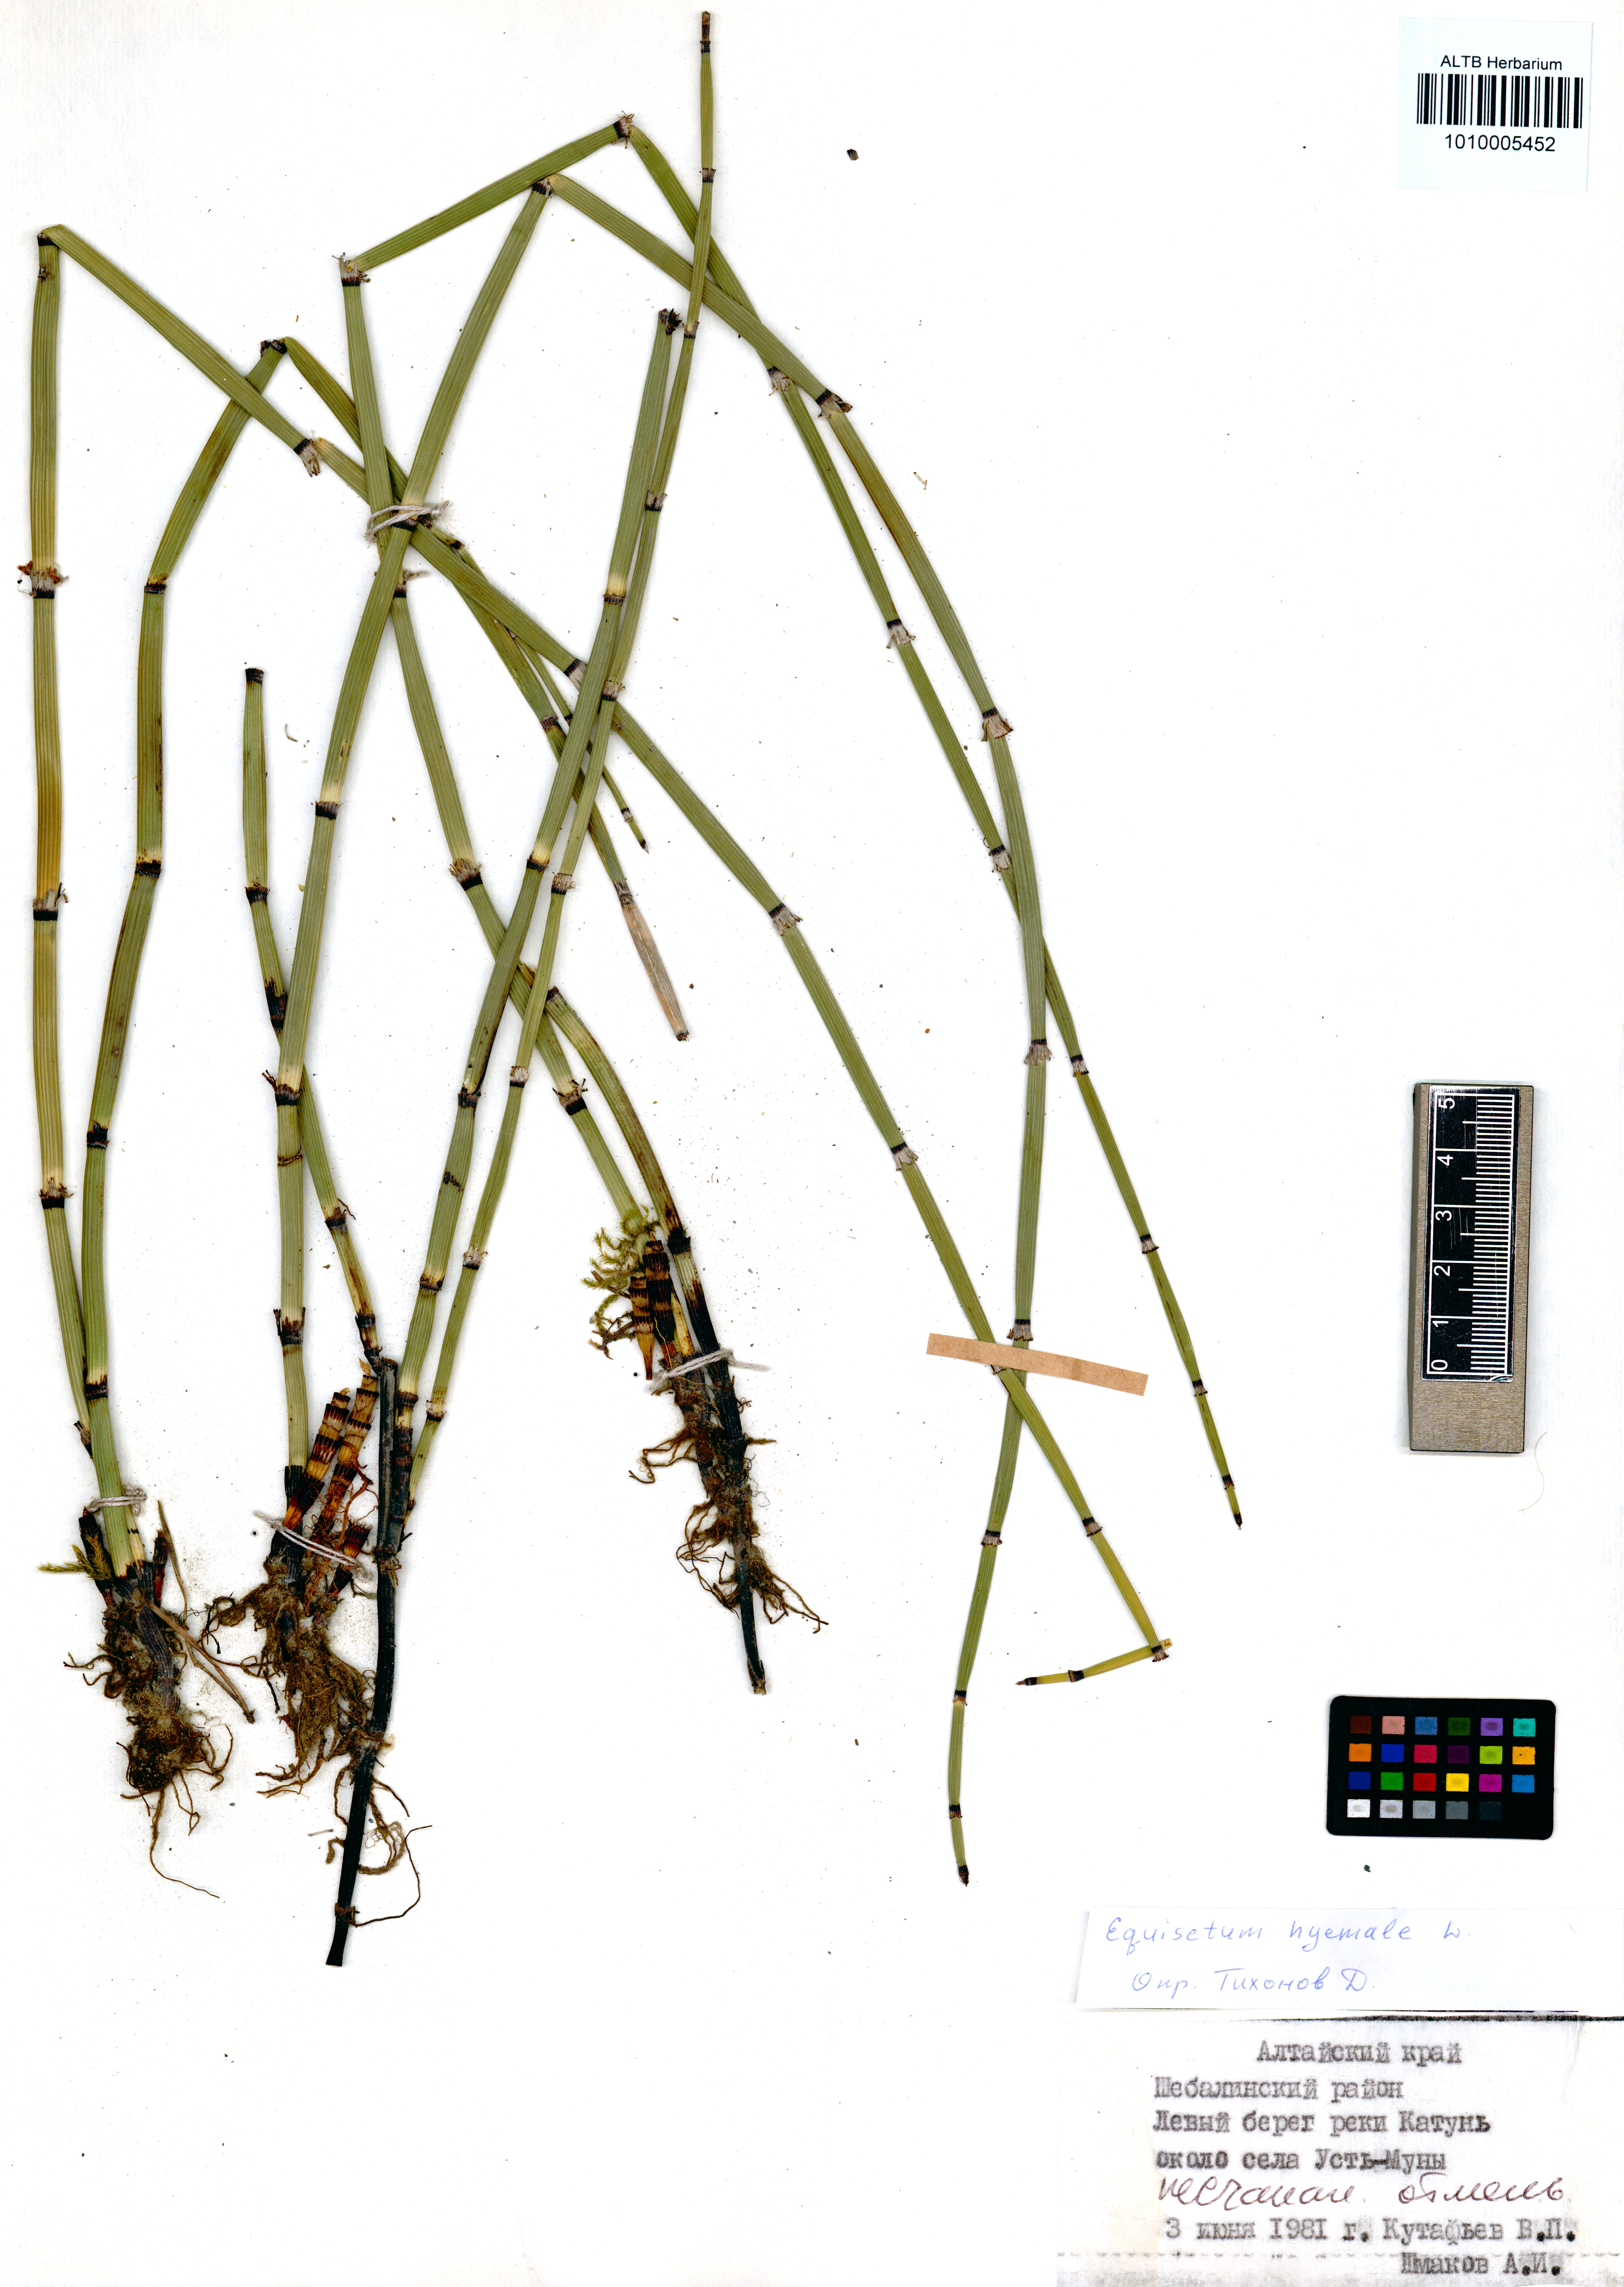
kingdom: Plantae
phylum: Tracheophyta
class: Polypodiopsida
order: Equisetales
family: Equisetaceae
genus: Equisetum
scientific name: Equisetum hyemale
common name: Rough horsetail
